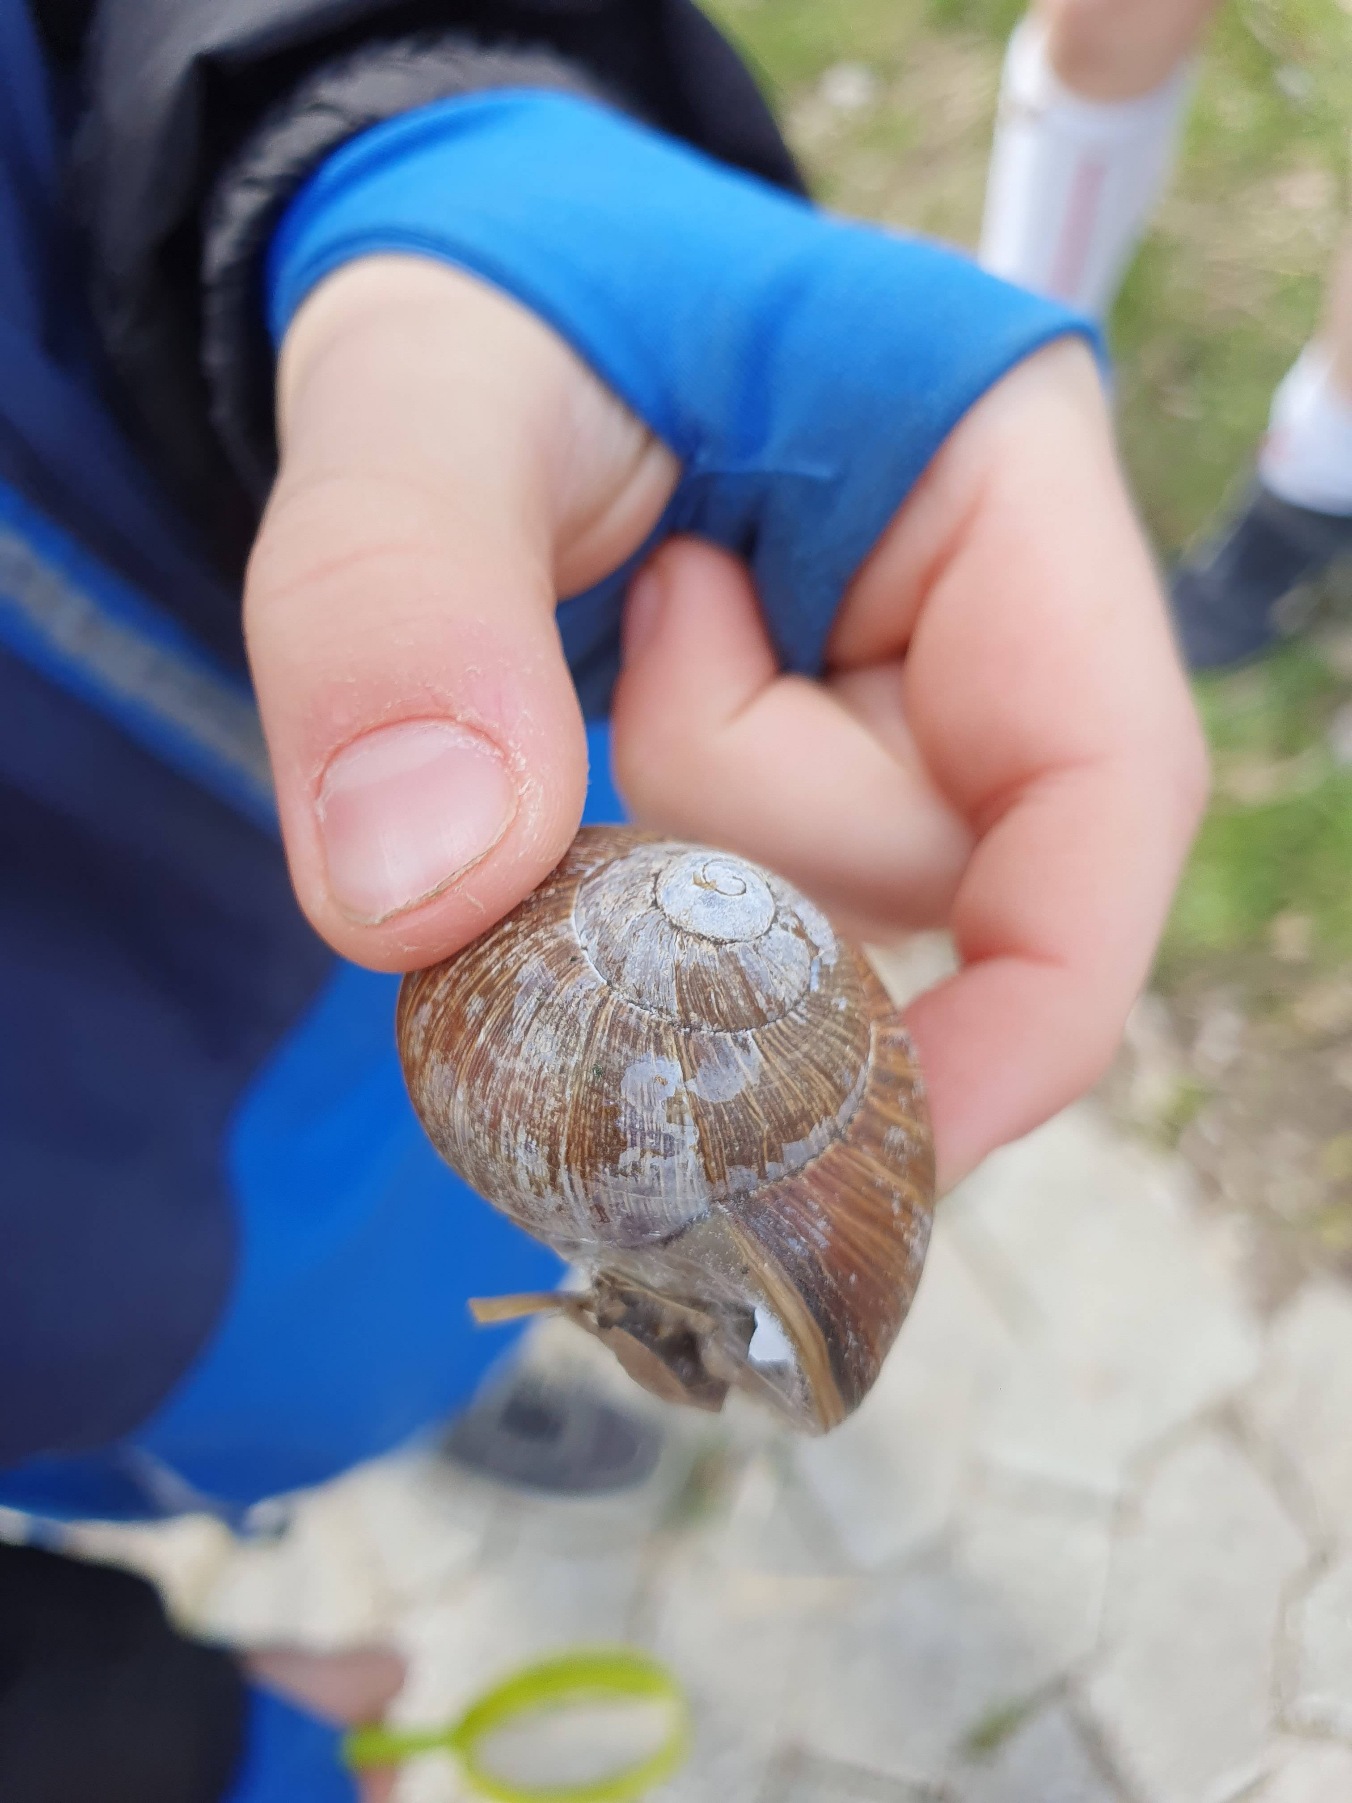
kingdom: Animalia
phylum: Mollusca
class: Gastropoda
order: Stylommatophora
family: Helicidae
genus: Helix
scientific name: Helix pomatia
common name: Vinbjergsnegl
